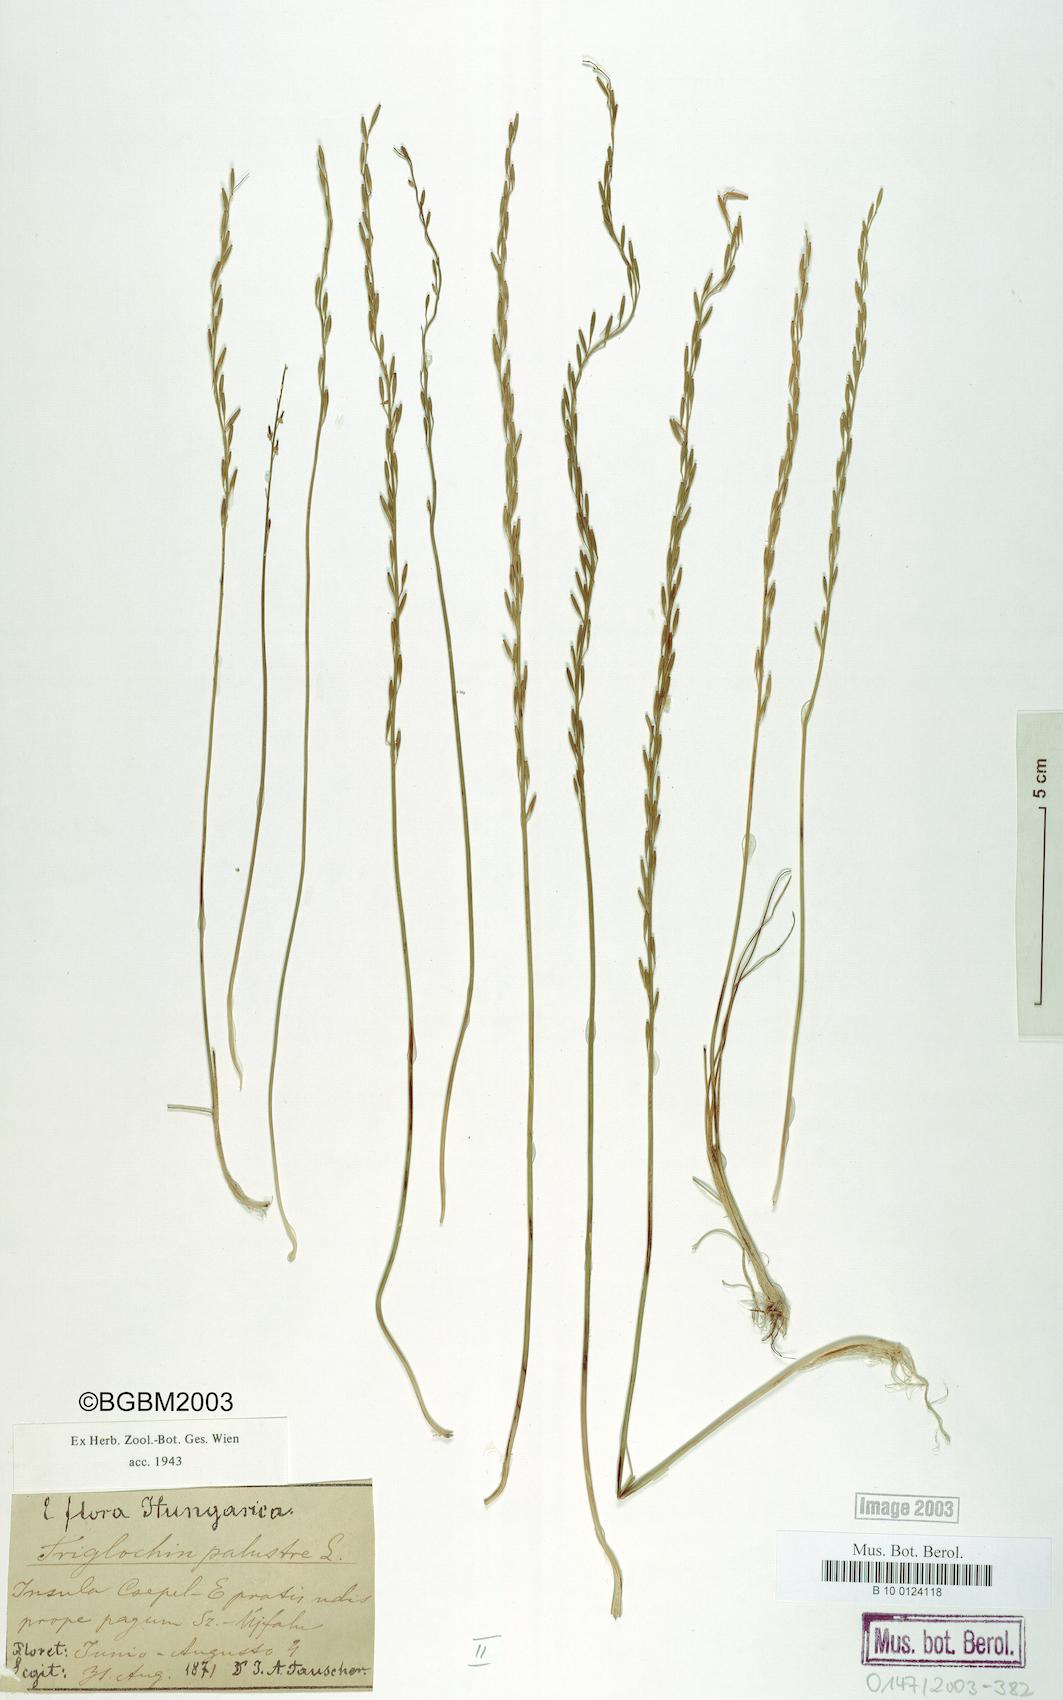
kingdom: Plantae
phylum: Tracheophyta
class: Liliopsida
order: Alismatales
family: Juncaginaceae
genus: Triglochin
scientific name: Triglochin palustris
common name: Marsh arrowgrass
